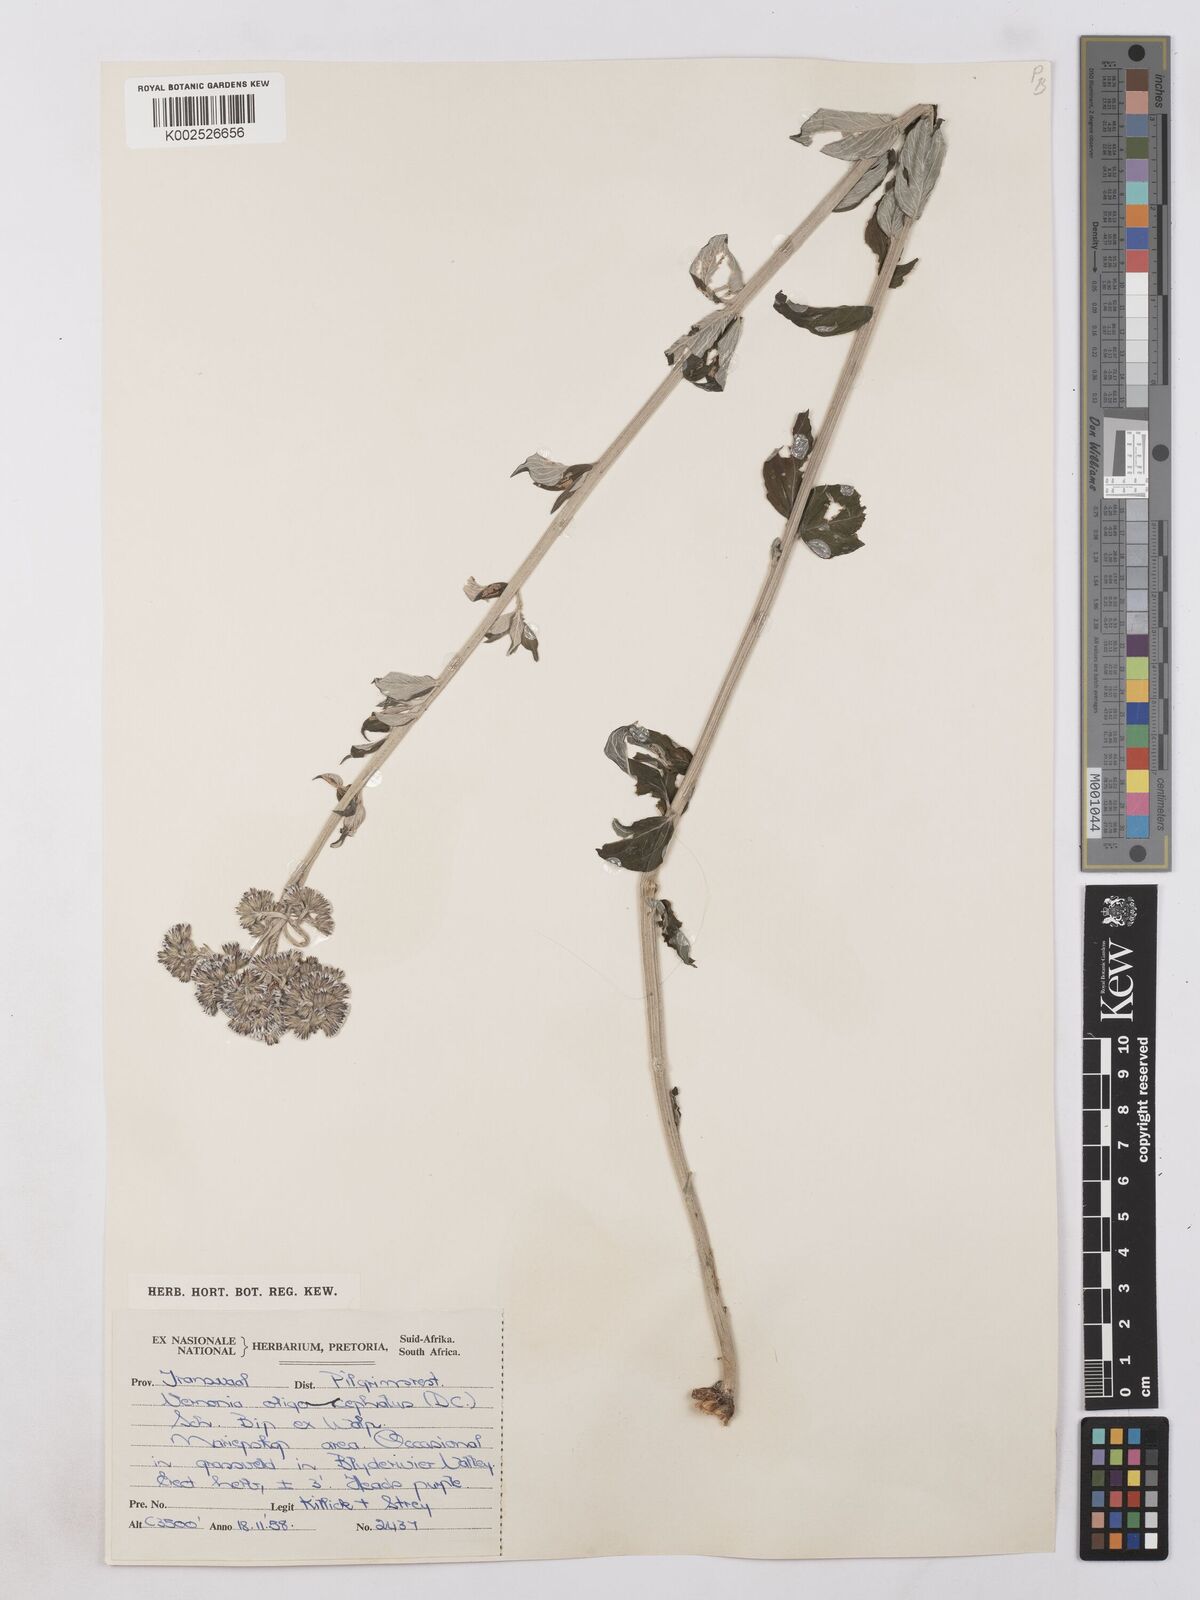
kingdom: Plantae
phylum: Tracheophyta
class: Magnoliopsida
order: Asterales
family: Asteraceae
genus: Hilliardiella
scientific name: Hilliardiella oligocephala
